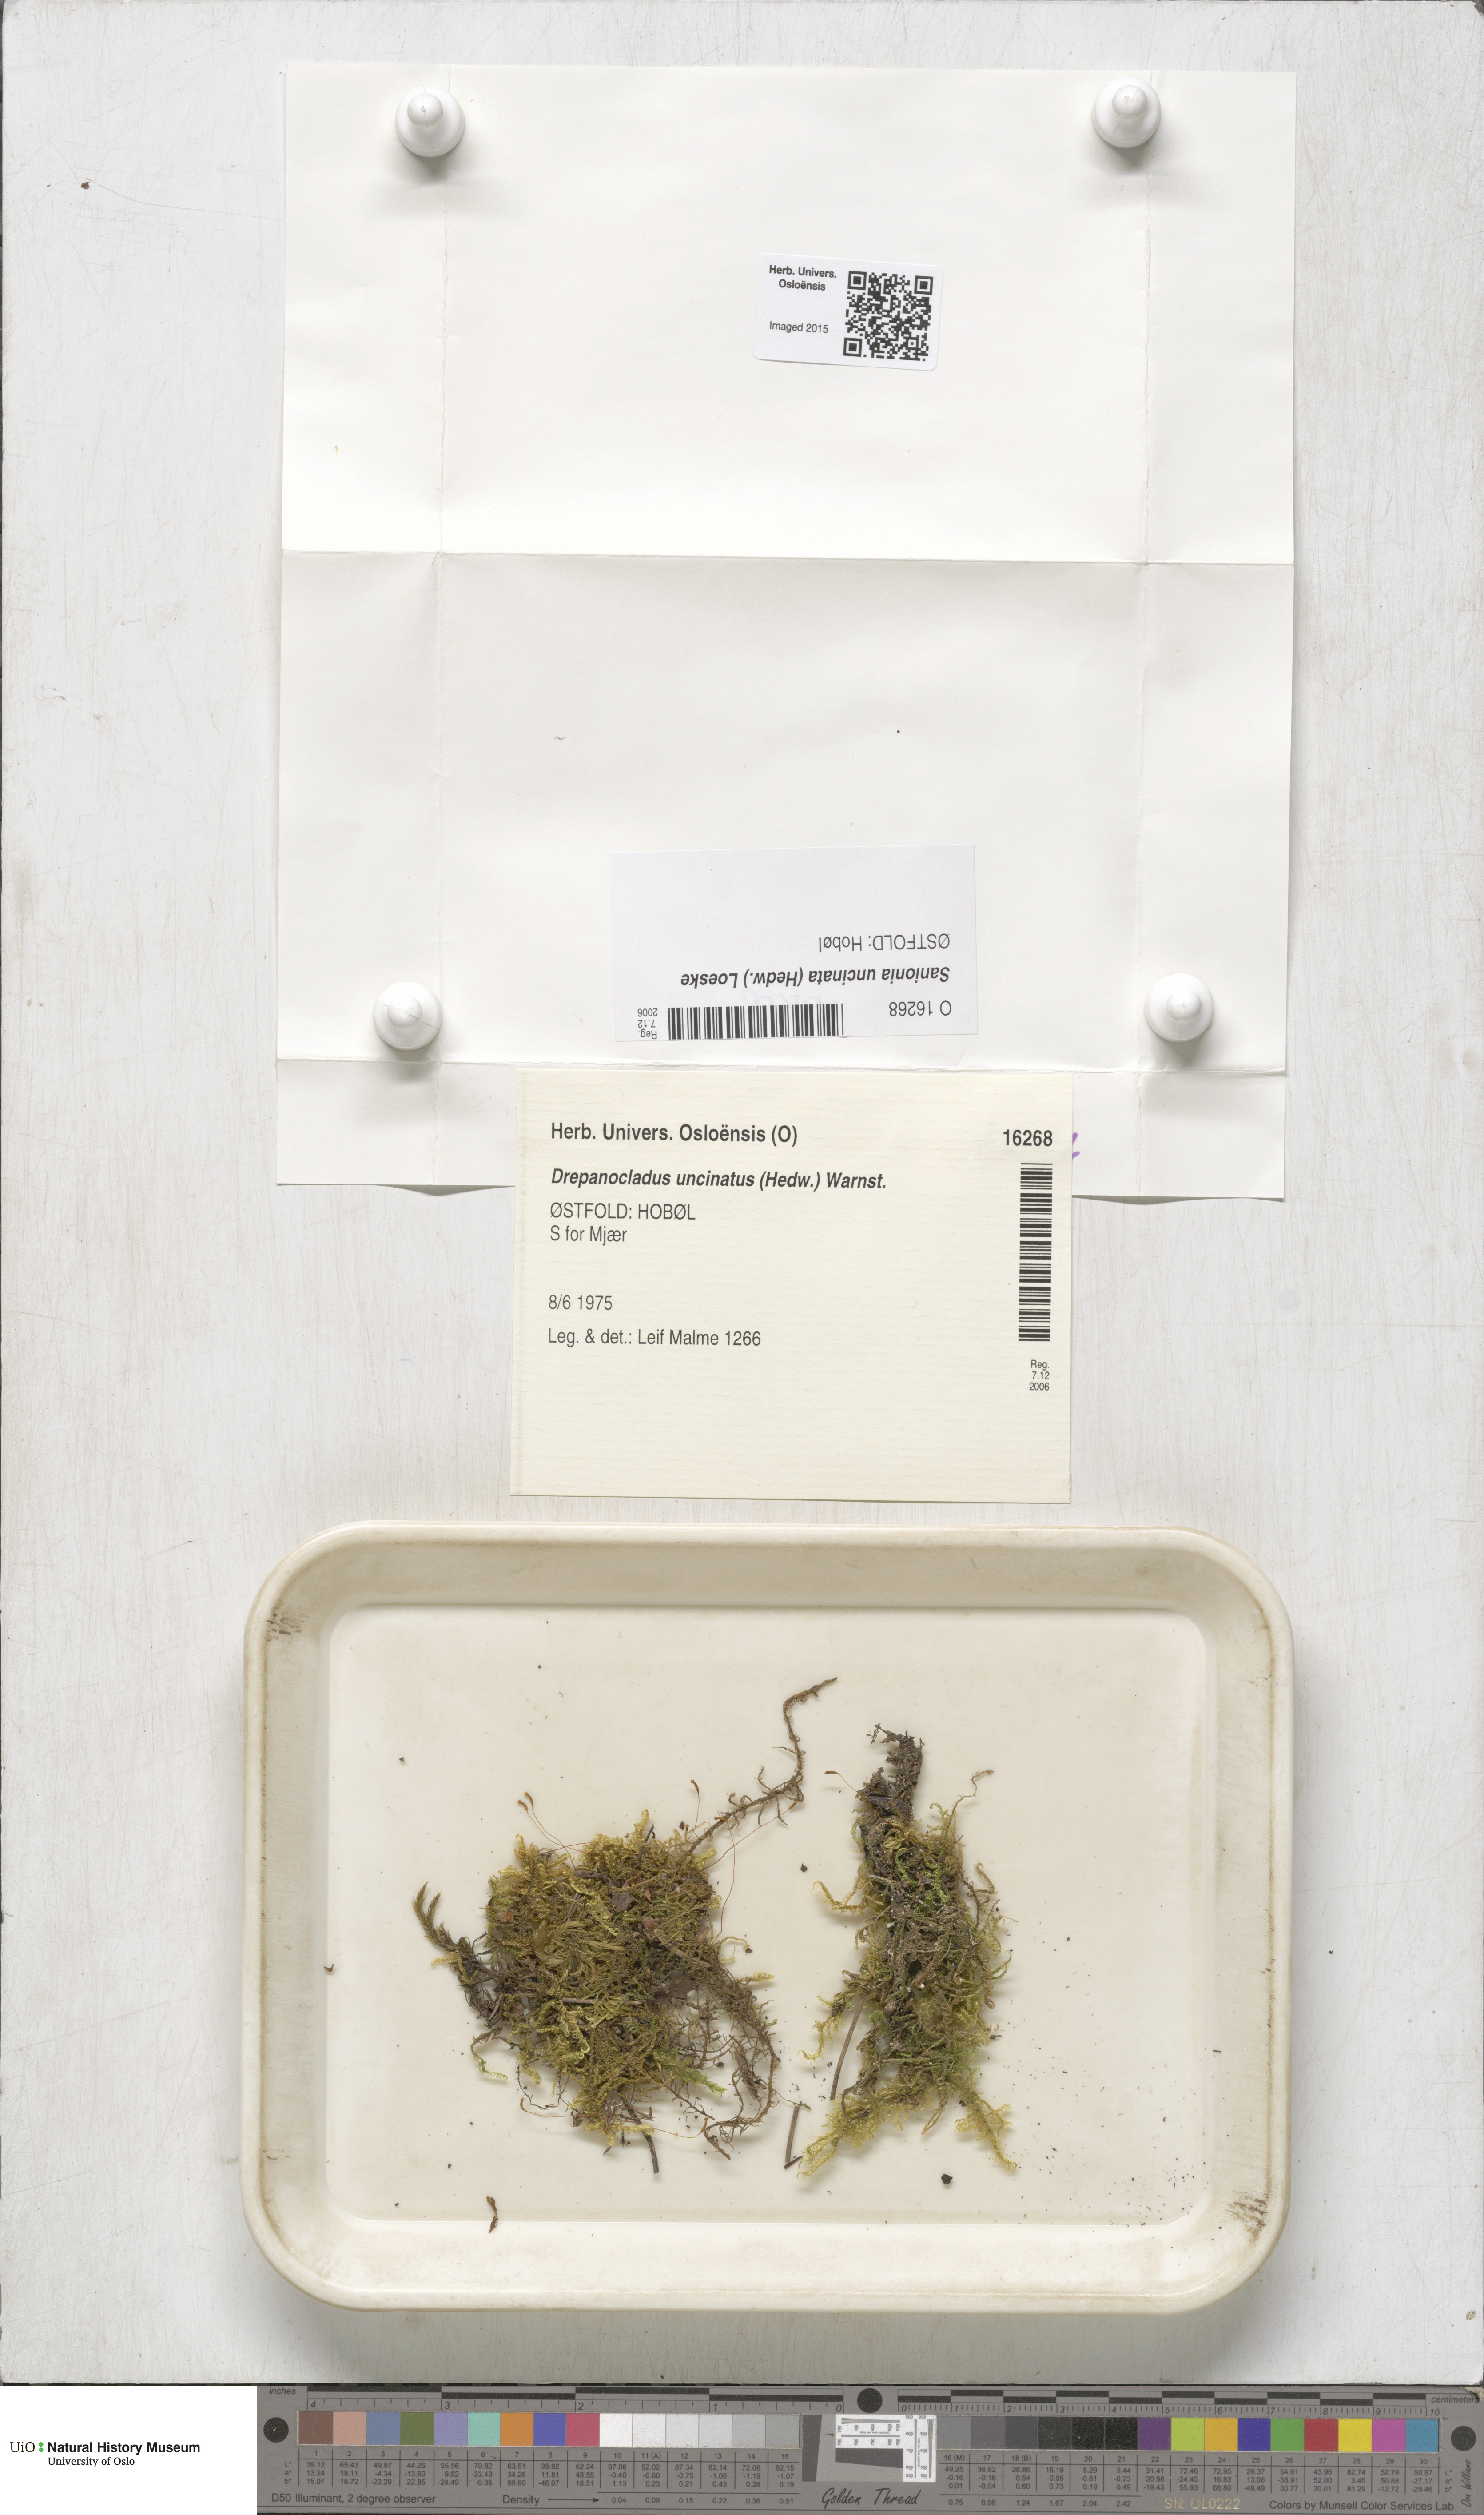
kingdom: Plantae
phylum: Bryophyta
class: Bryopsida
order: Hypnales
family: Scorpidiaceae
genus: Sanionia
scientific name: Sanionia uncinata
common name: Sickle moss
